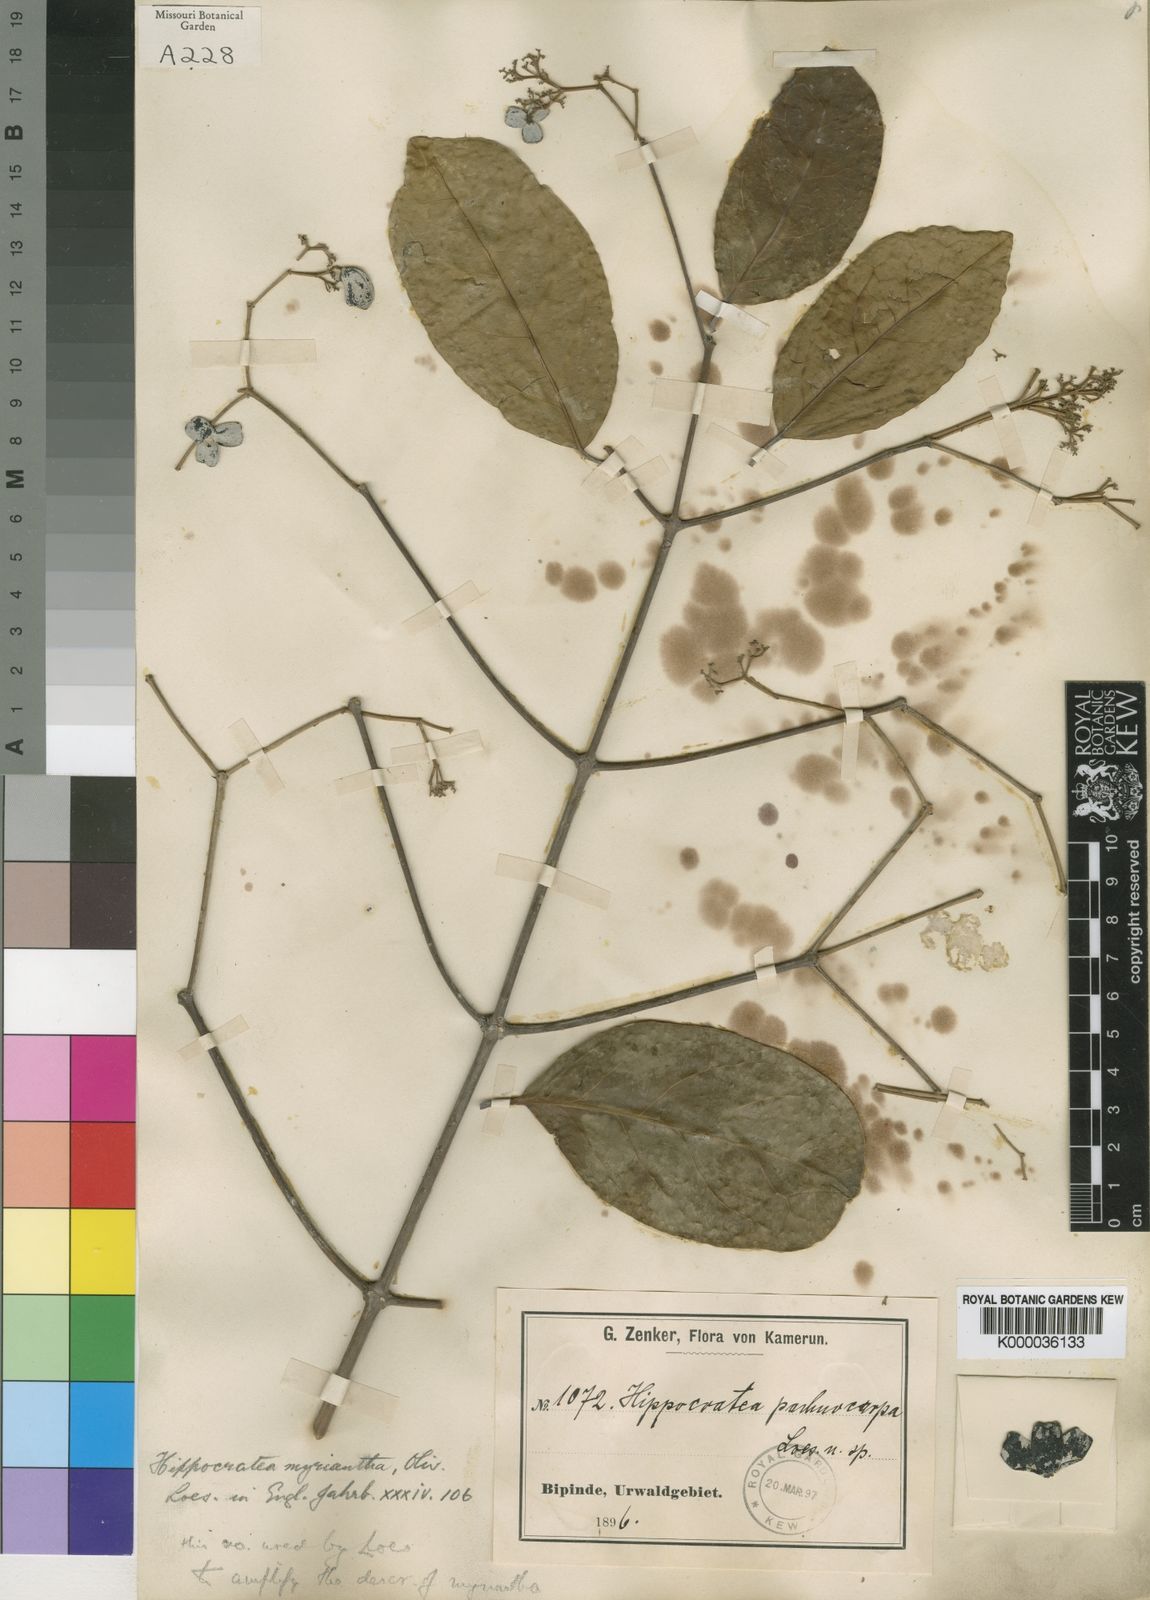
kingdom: Plantae
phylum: Tracheophyta
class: Magnoliopsida
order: Celastrales
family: Celastraceae
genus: Hippocratea
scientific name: Hippocratea myriantha
